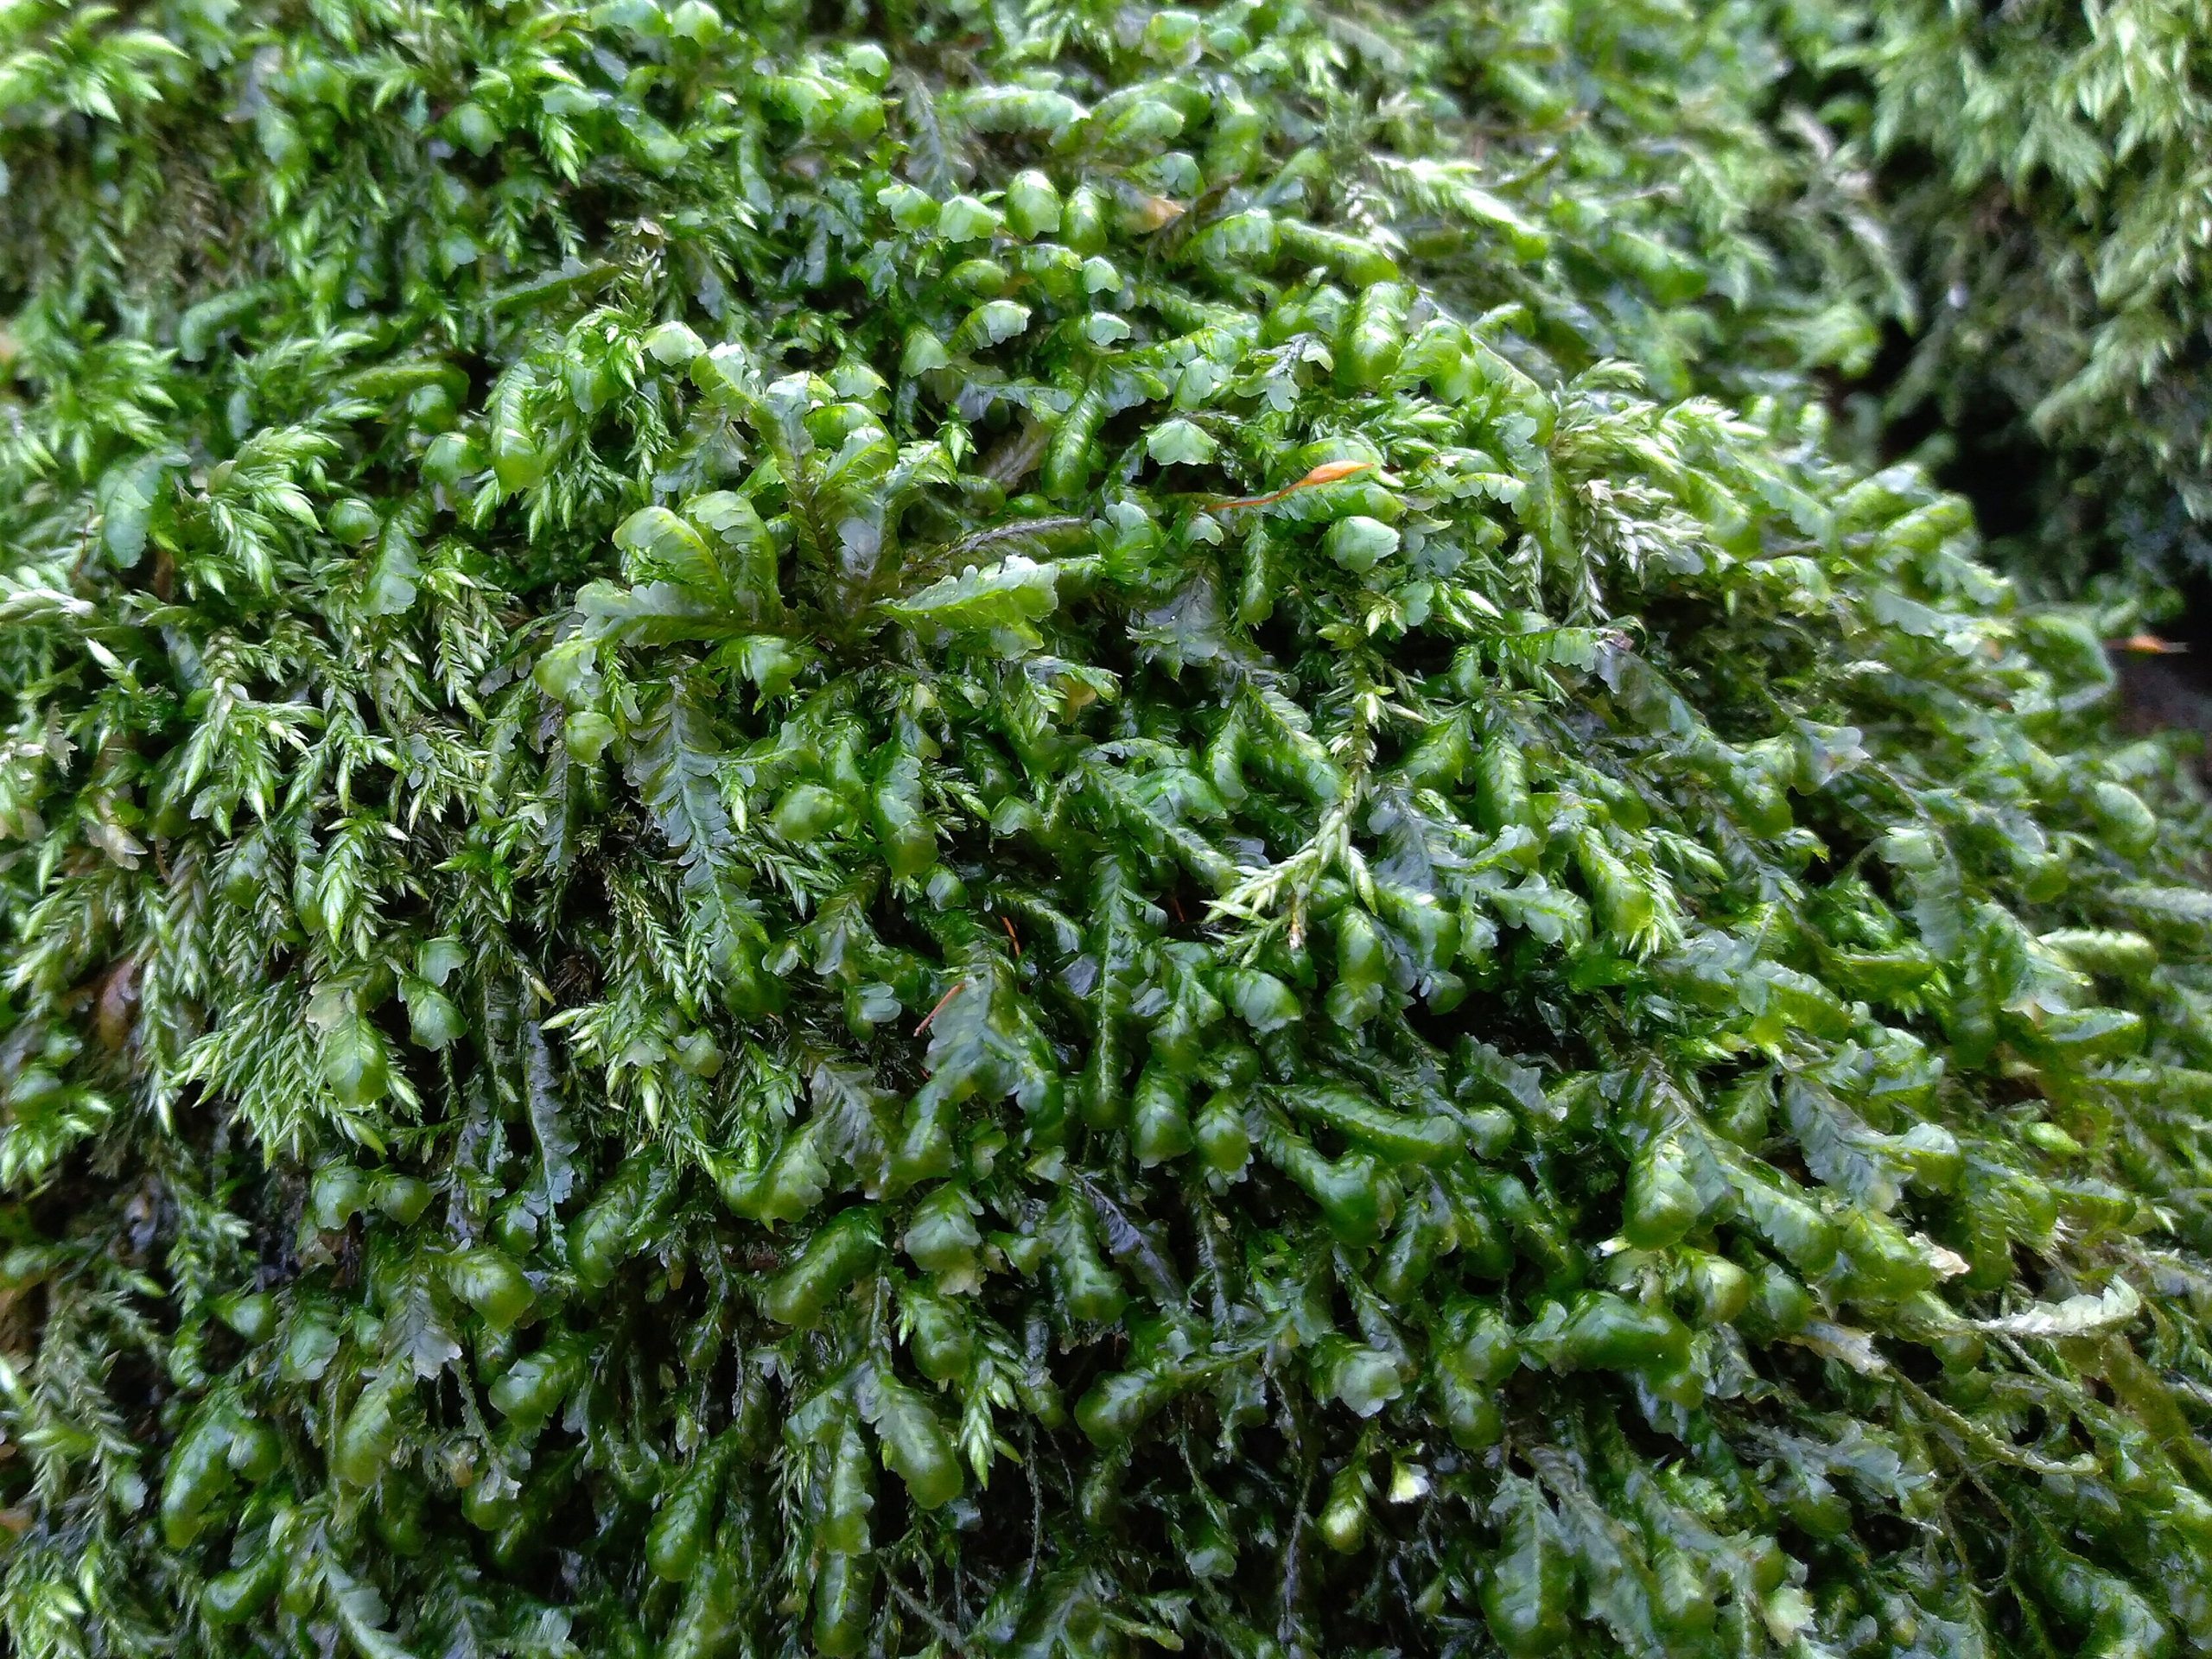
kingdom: Plantae
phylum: Bryophyta
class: Bryopsida
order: Hypnales
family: Neckeraceae
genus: Homalia
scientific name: Homalia trichomanoides
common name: Skov-tungemos
